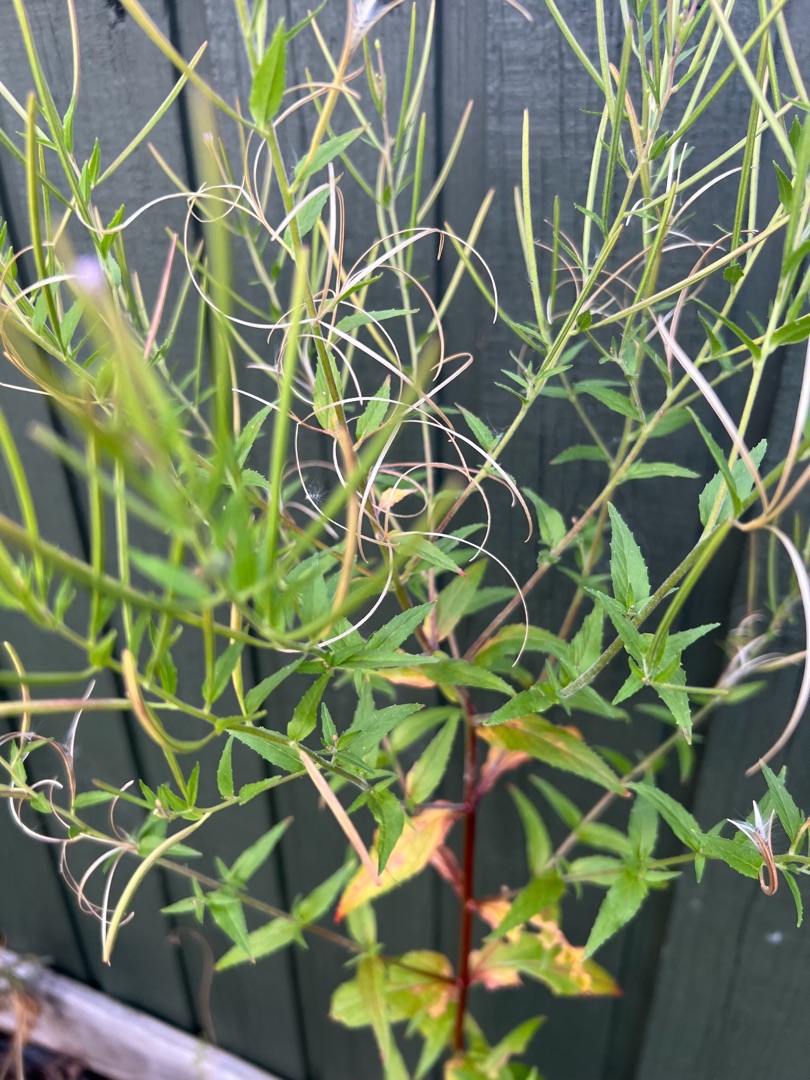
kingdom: Plantae
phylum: Tracheophyta
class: Magnoliopsida
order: Myrtales
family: Onagraceae
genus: Epilobium
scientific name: Epilobium ciliatum
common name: Kirtlet dueurt
